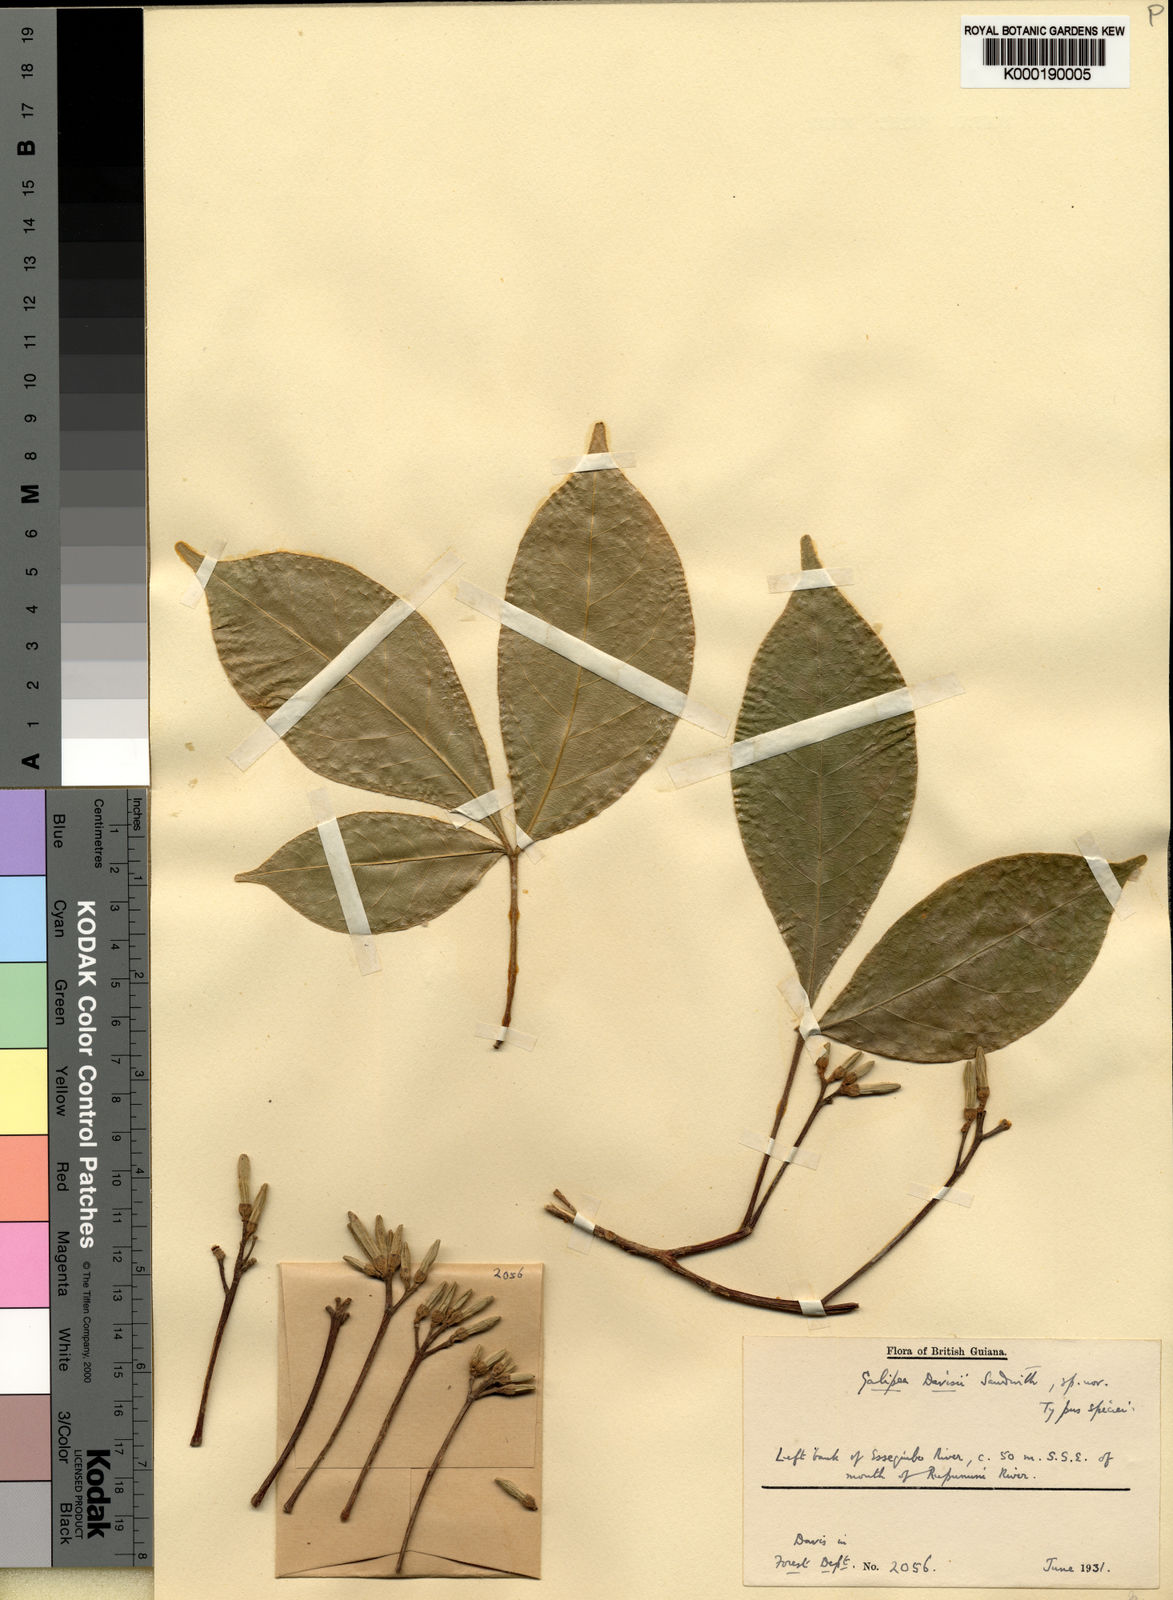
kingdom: Plantae
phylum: Tracheophyta
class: Magnoliopsida
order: Sapindales
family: Rutaceae
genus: Galipea
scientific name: Galipea davisii
